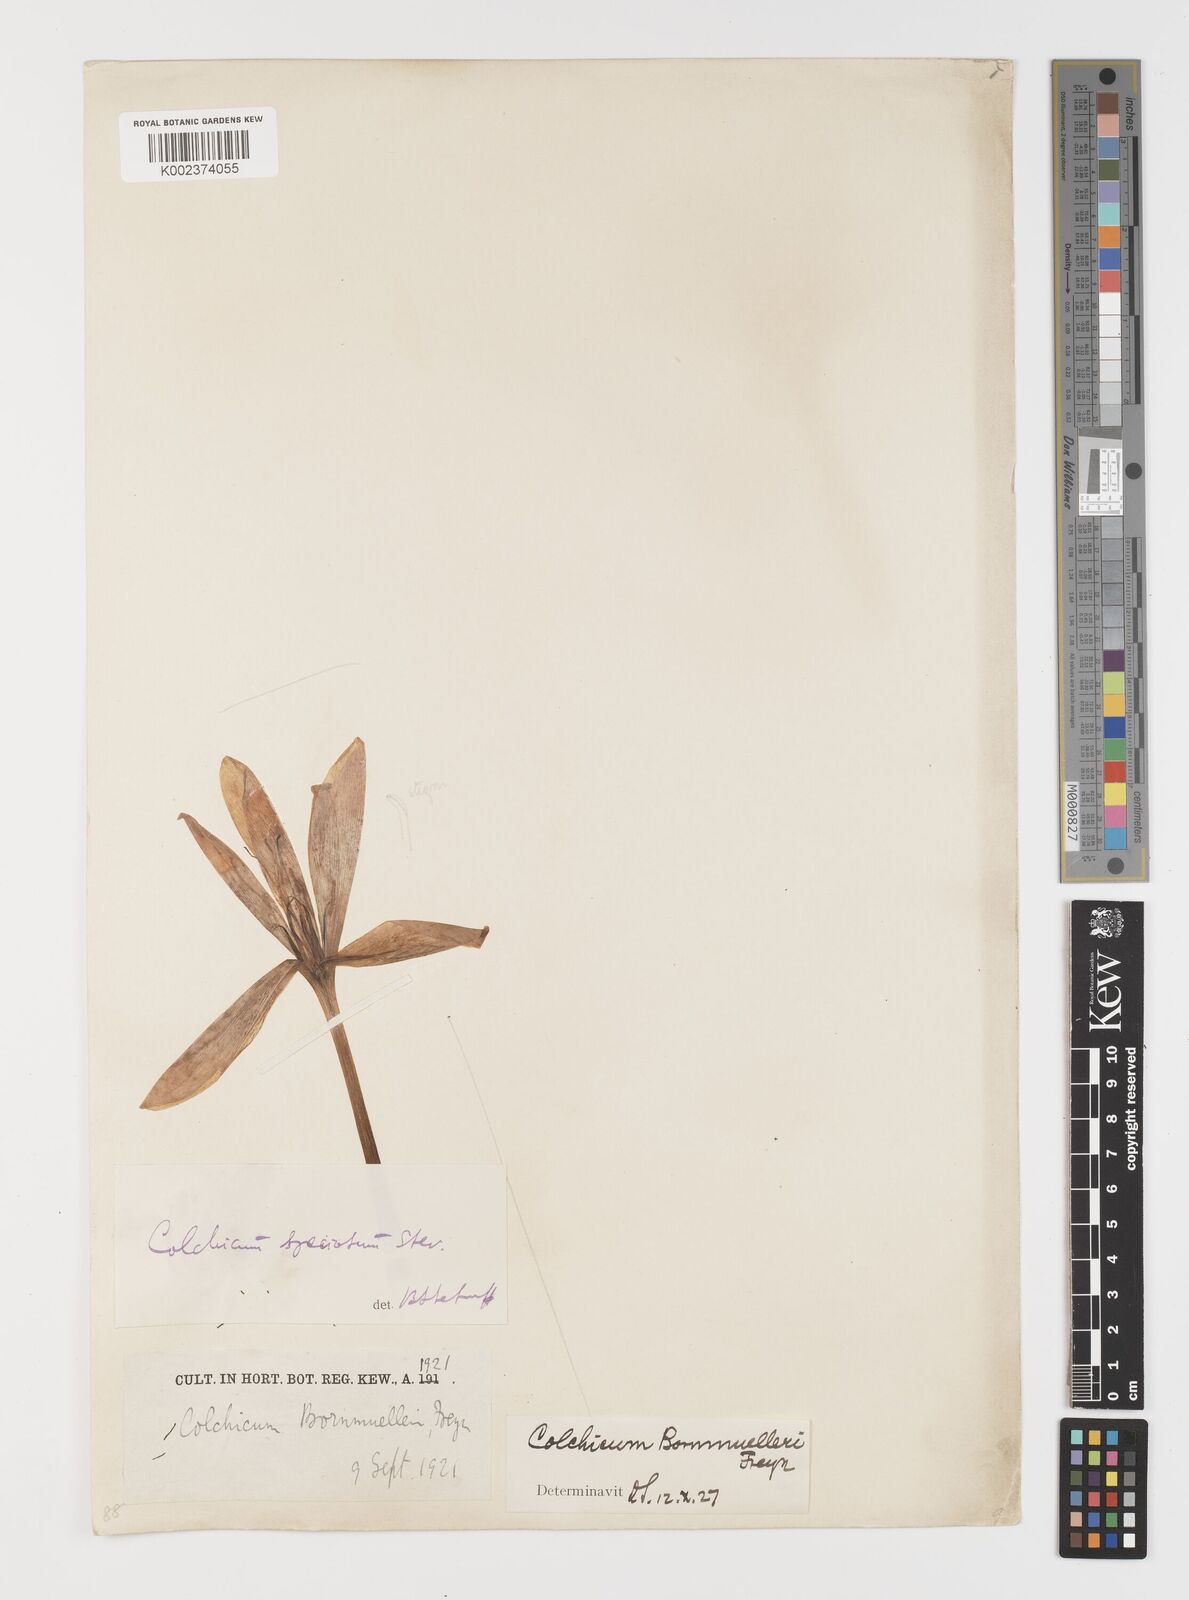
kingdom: Plantae
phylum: Tracheophyta
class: Liliopsida
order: Liliales
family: Colchicaceae
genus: Colchicum
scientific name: Colchicum speciosum
